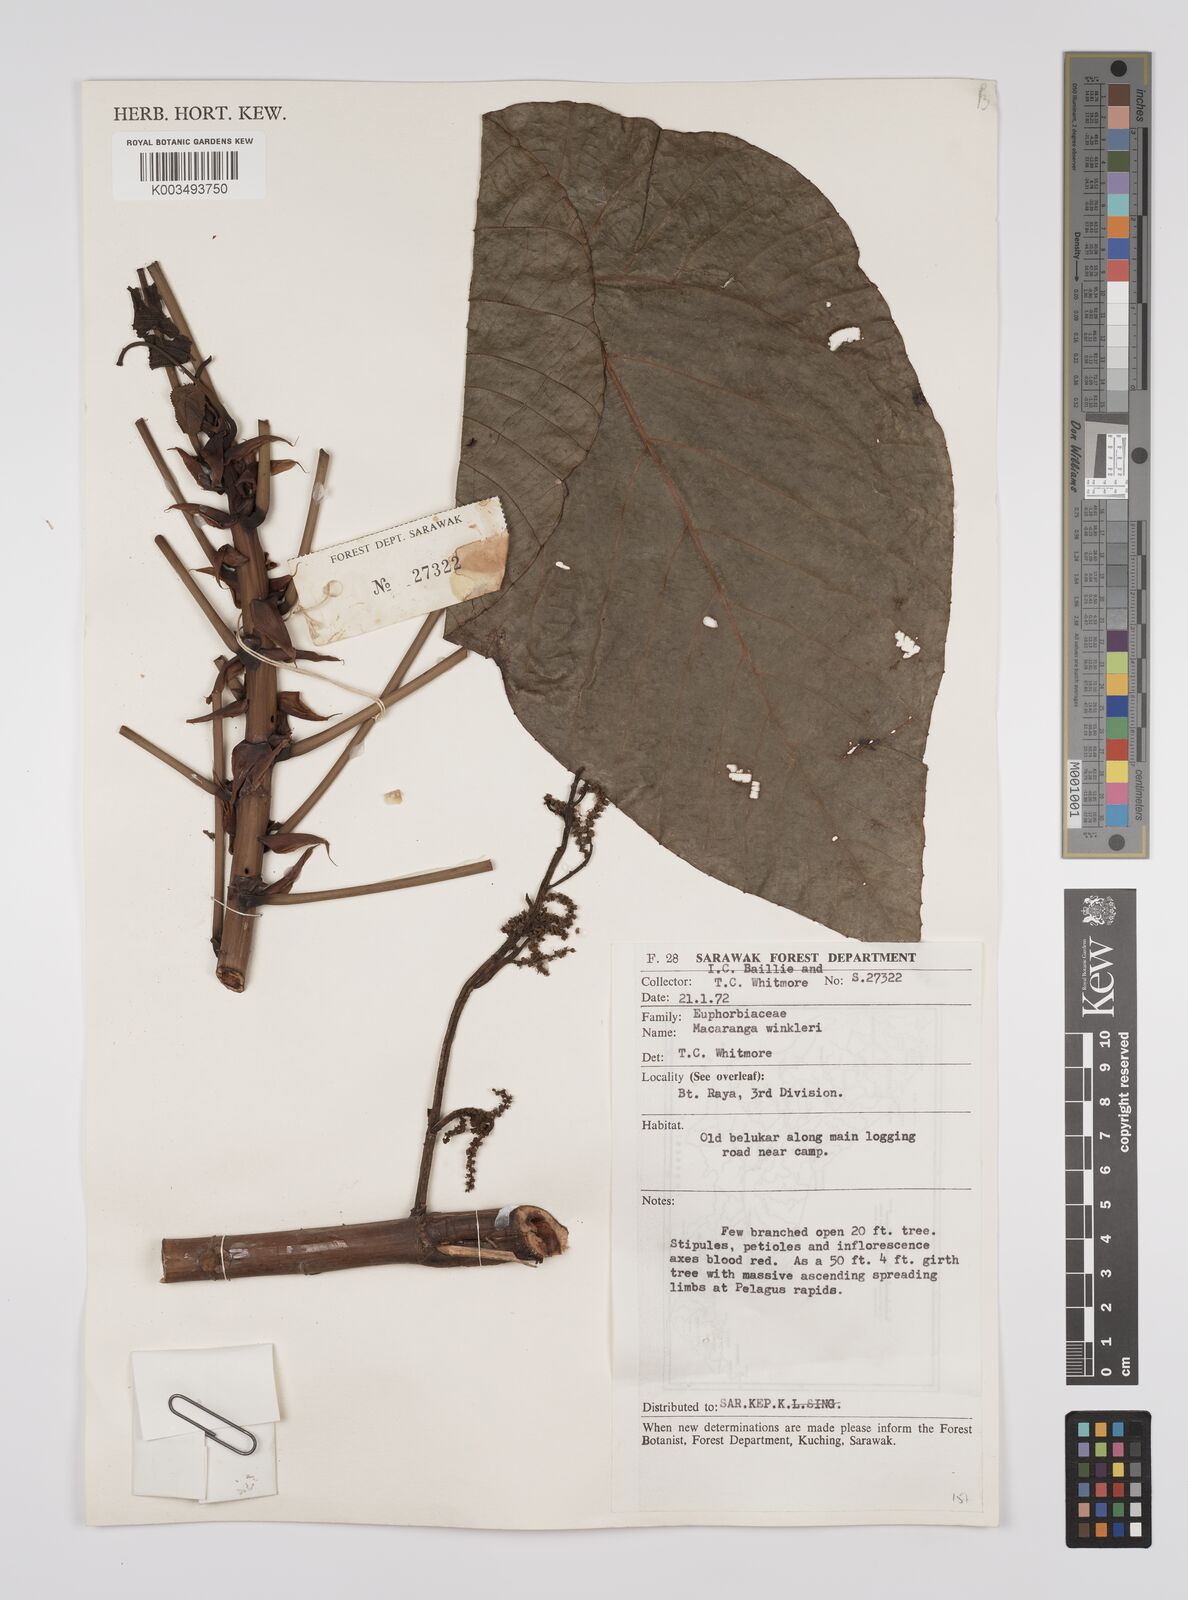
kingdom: Plantae
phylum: Tracheophyta
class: Magnoliopsida
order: Malpighiales
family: Euphorbiaceae
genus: Macaranga
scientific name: Macaranga winkleri
